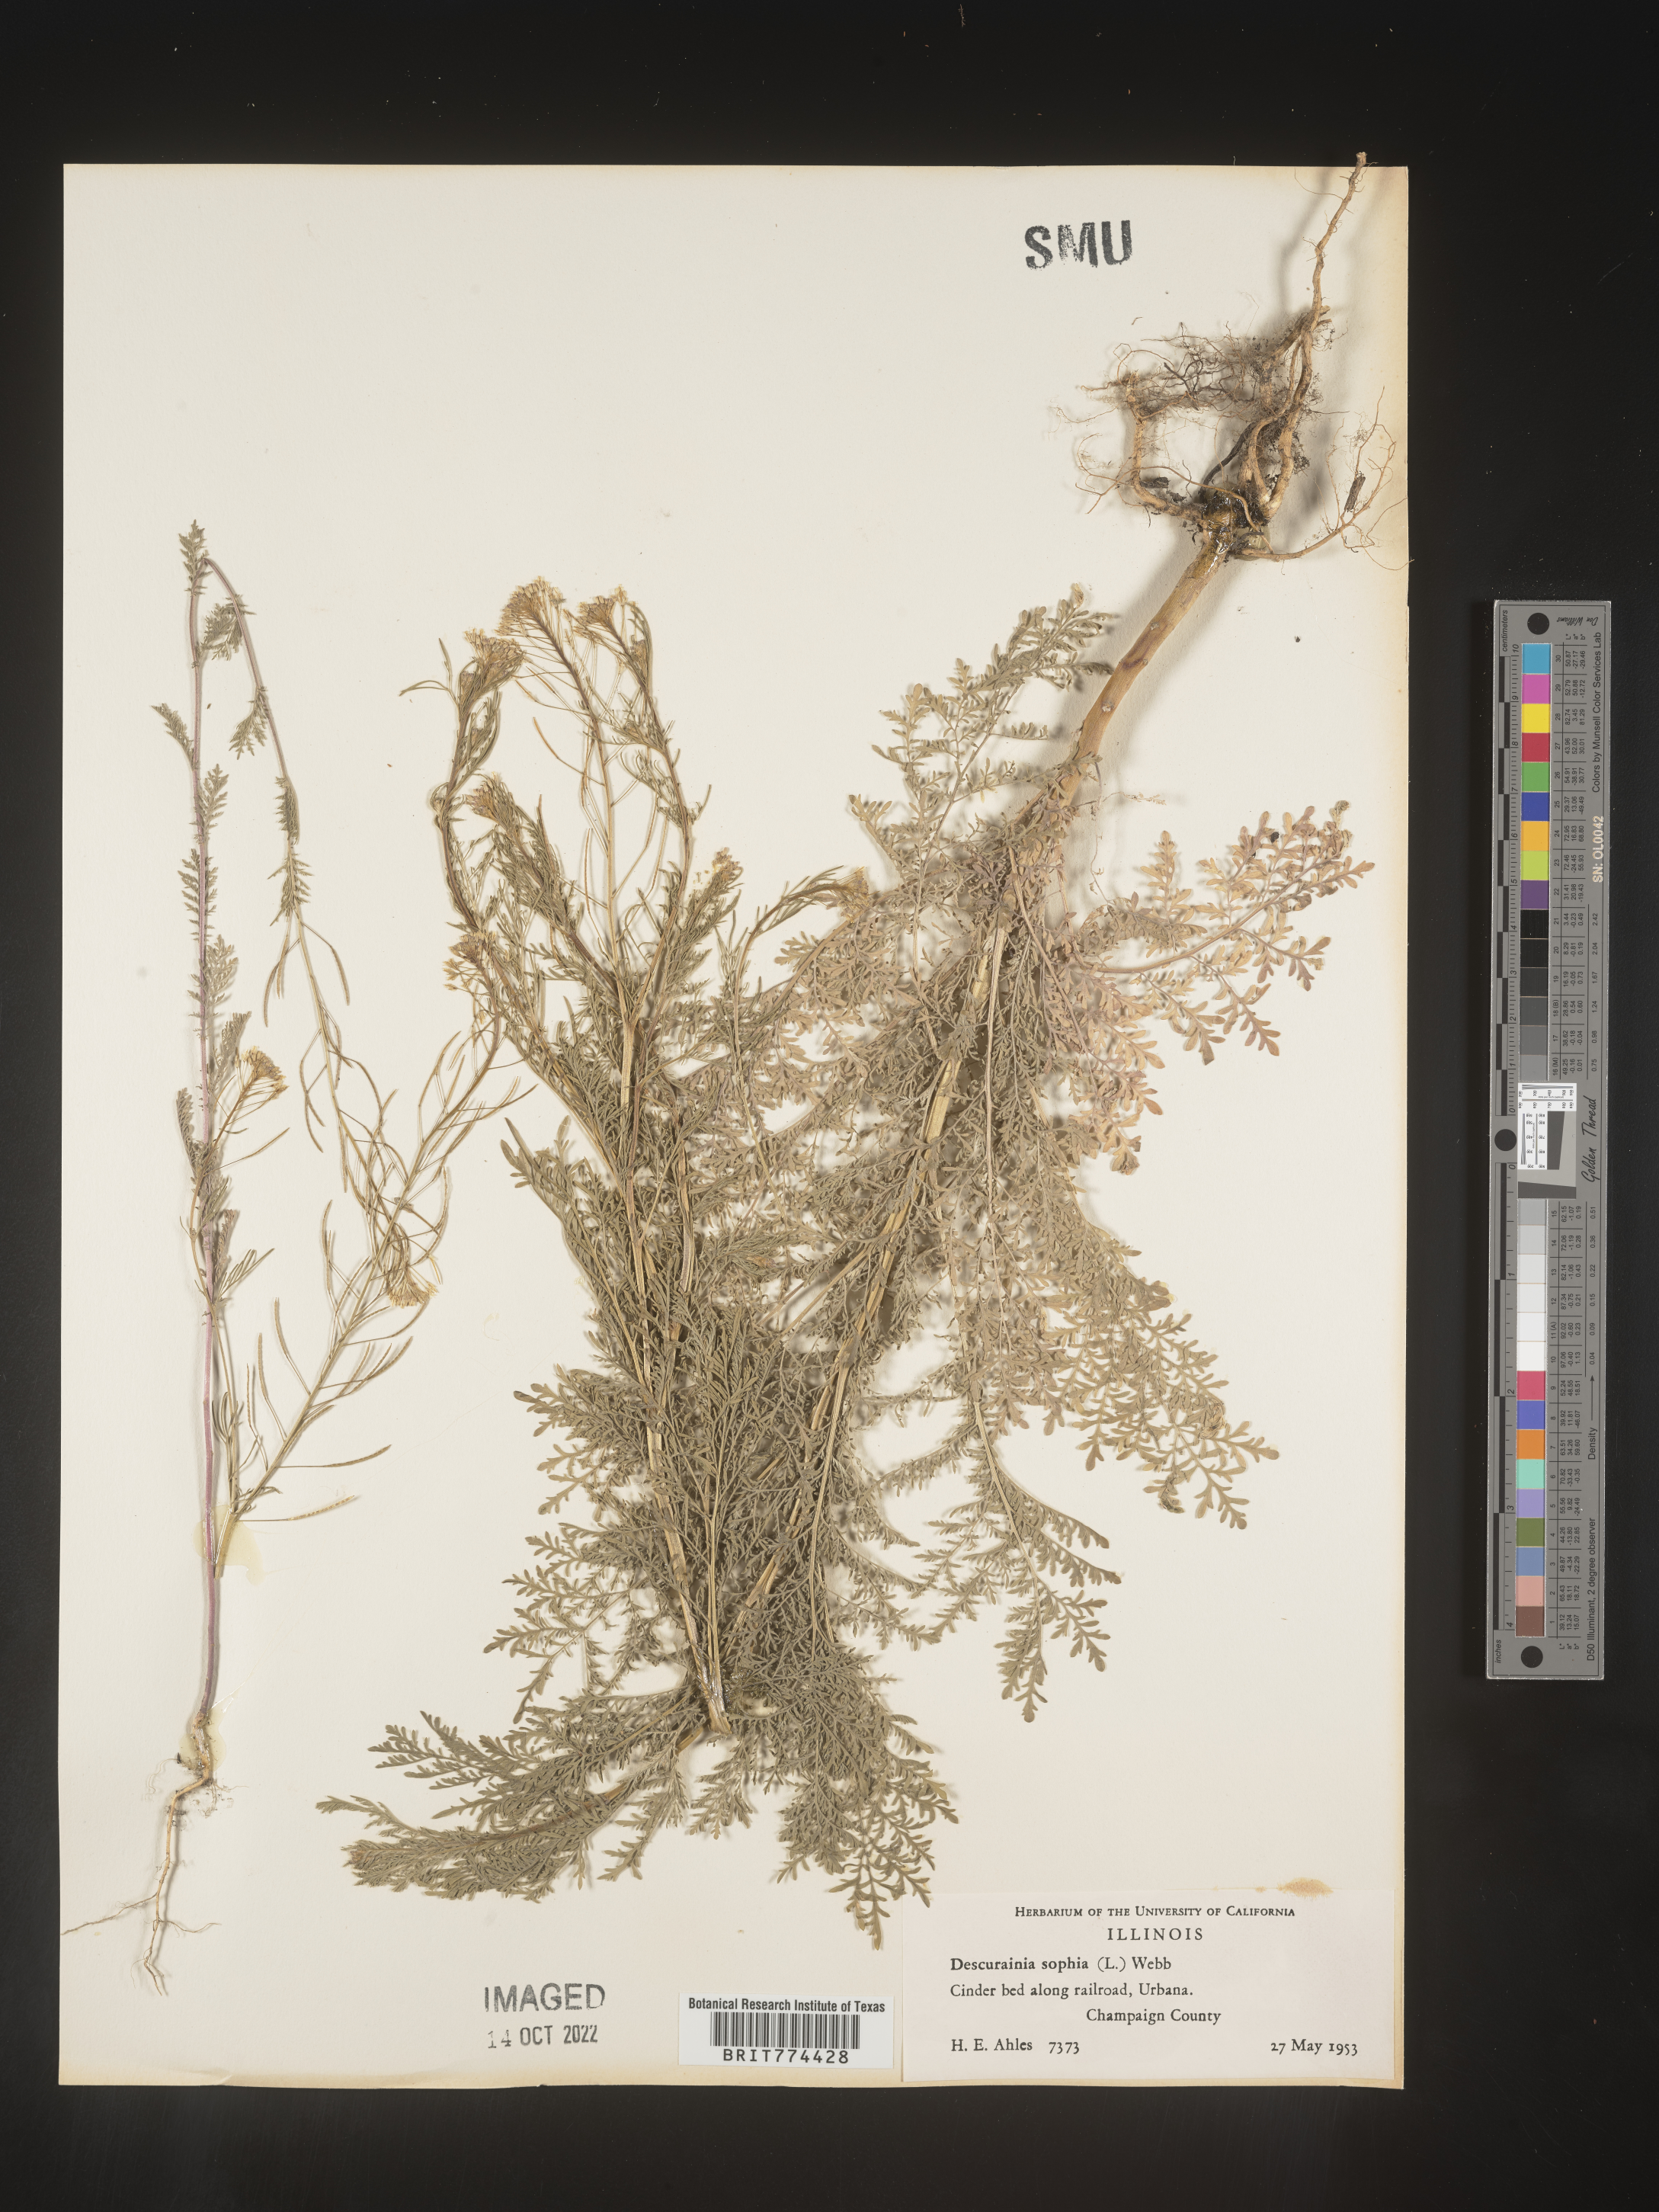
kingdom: Plantae
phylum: Tracheophyta
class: Magnoliopsida
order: Brassicales
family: Brassicaceae
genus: Descurainia
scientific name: Descurainia sophia
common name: Flixweed
